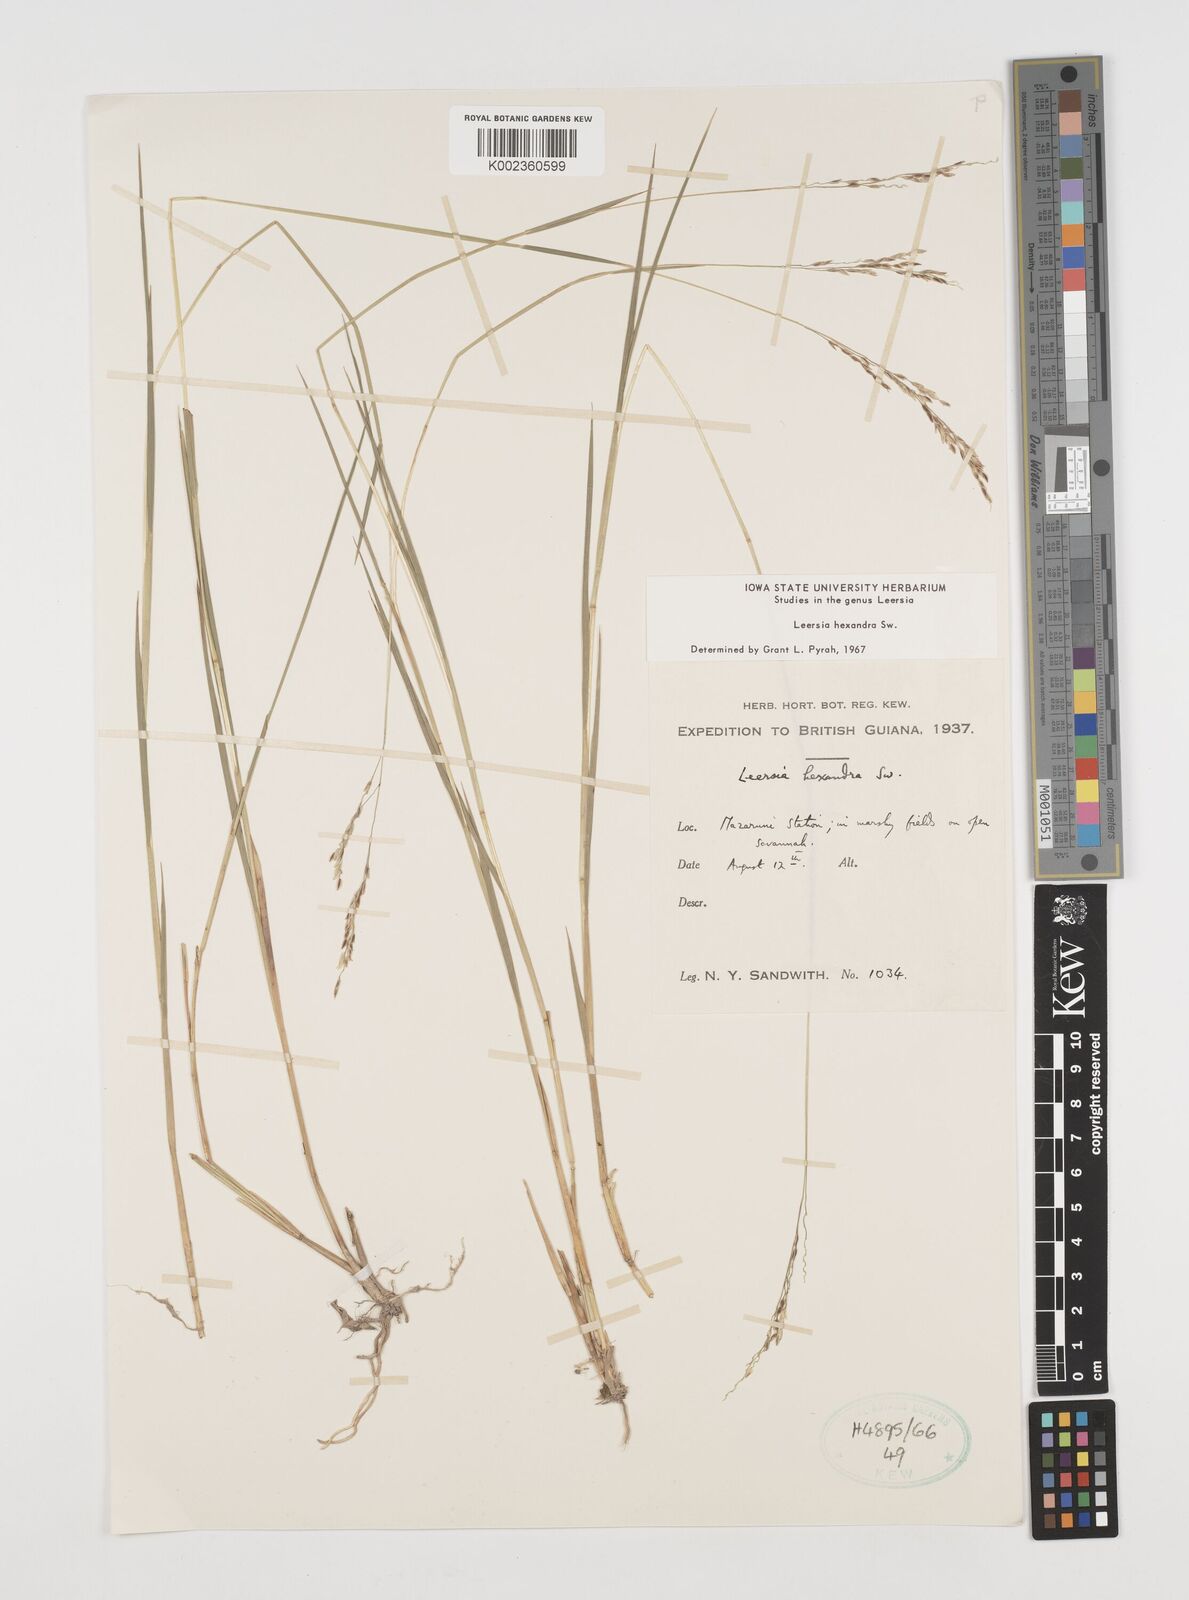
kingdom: Plantae
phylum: Tracheophyta
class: Liliopsida
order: Poales
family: Poaceae
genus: Leersia
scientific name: Leersia hexandra
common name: Southern cut grass
